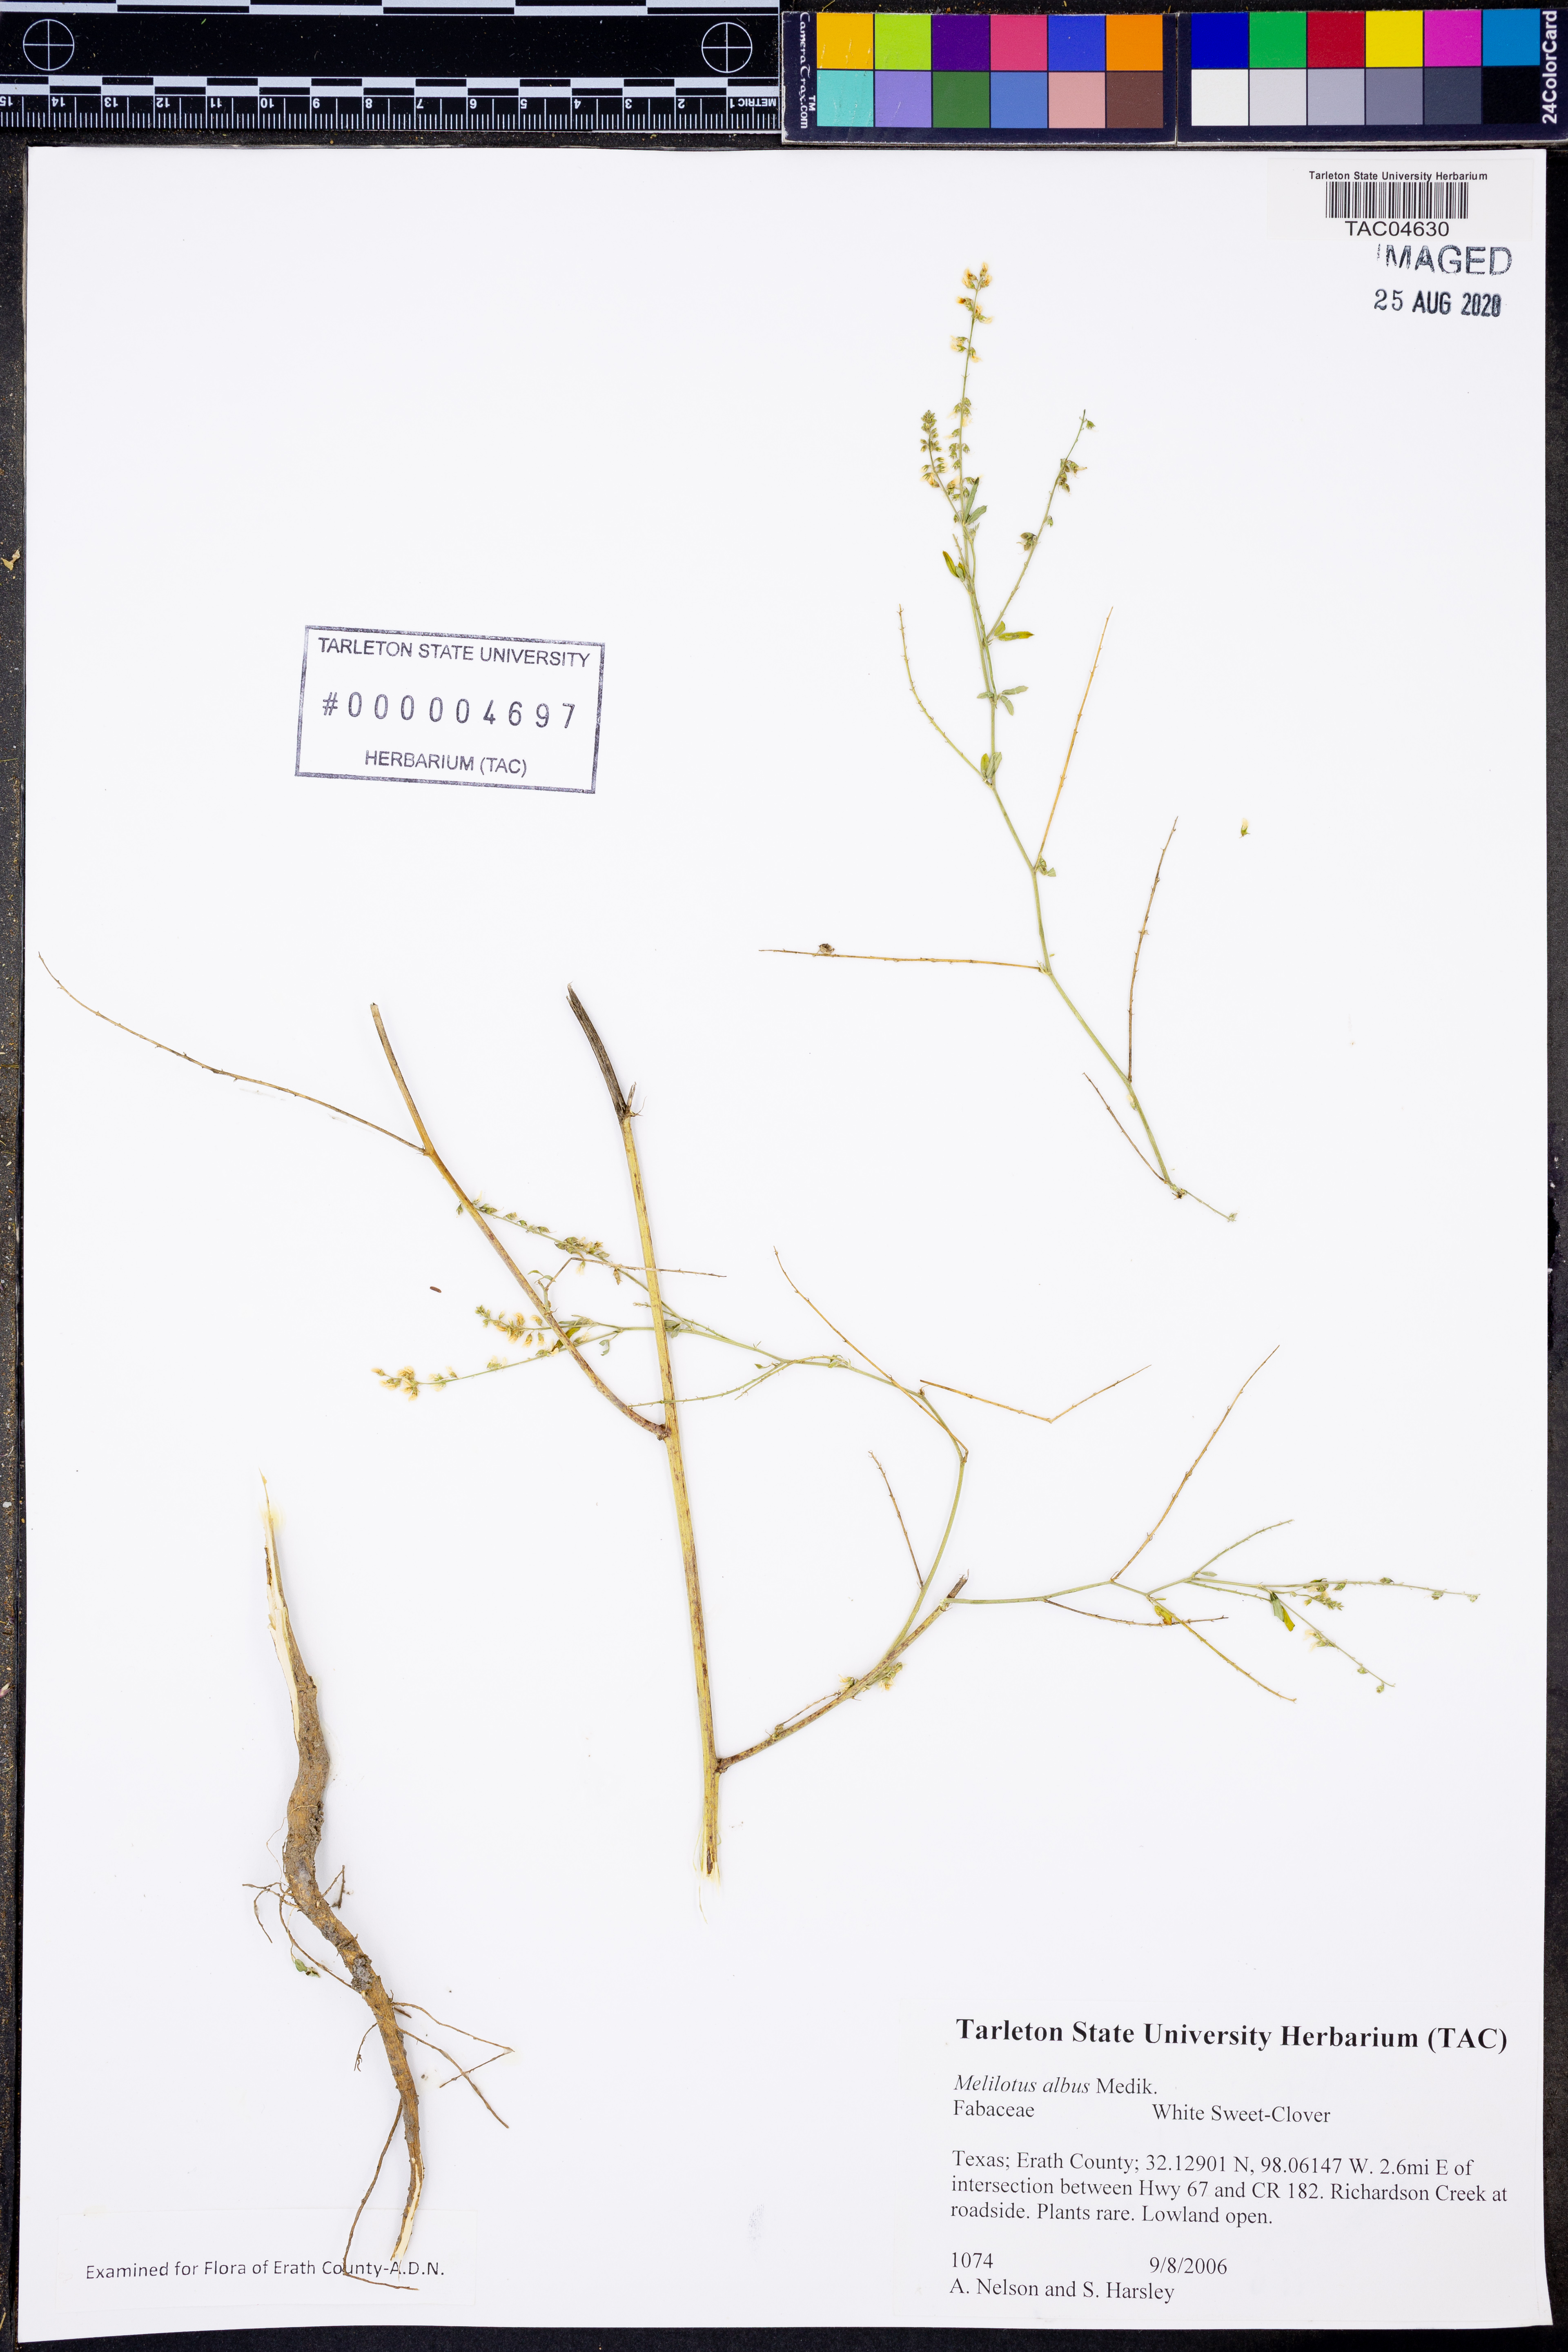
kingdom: Plantae
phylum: Tracheophyta
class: Magnoliopsida
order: Fabales
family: Fabaceae
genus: Melilotus
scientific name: Melilotus albus
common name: White melilot
